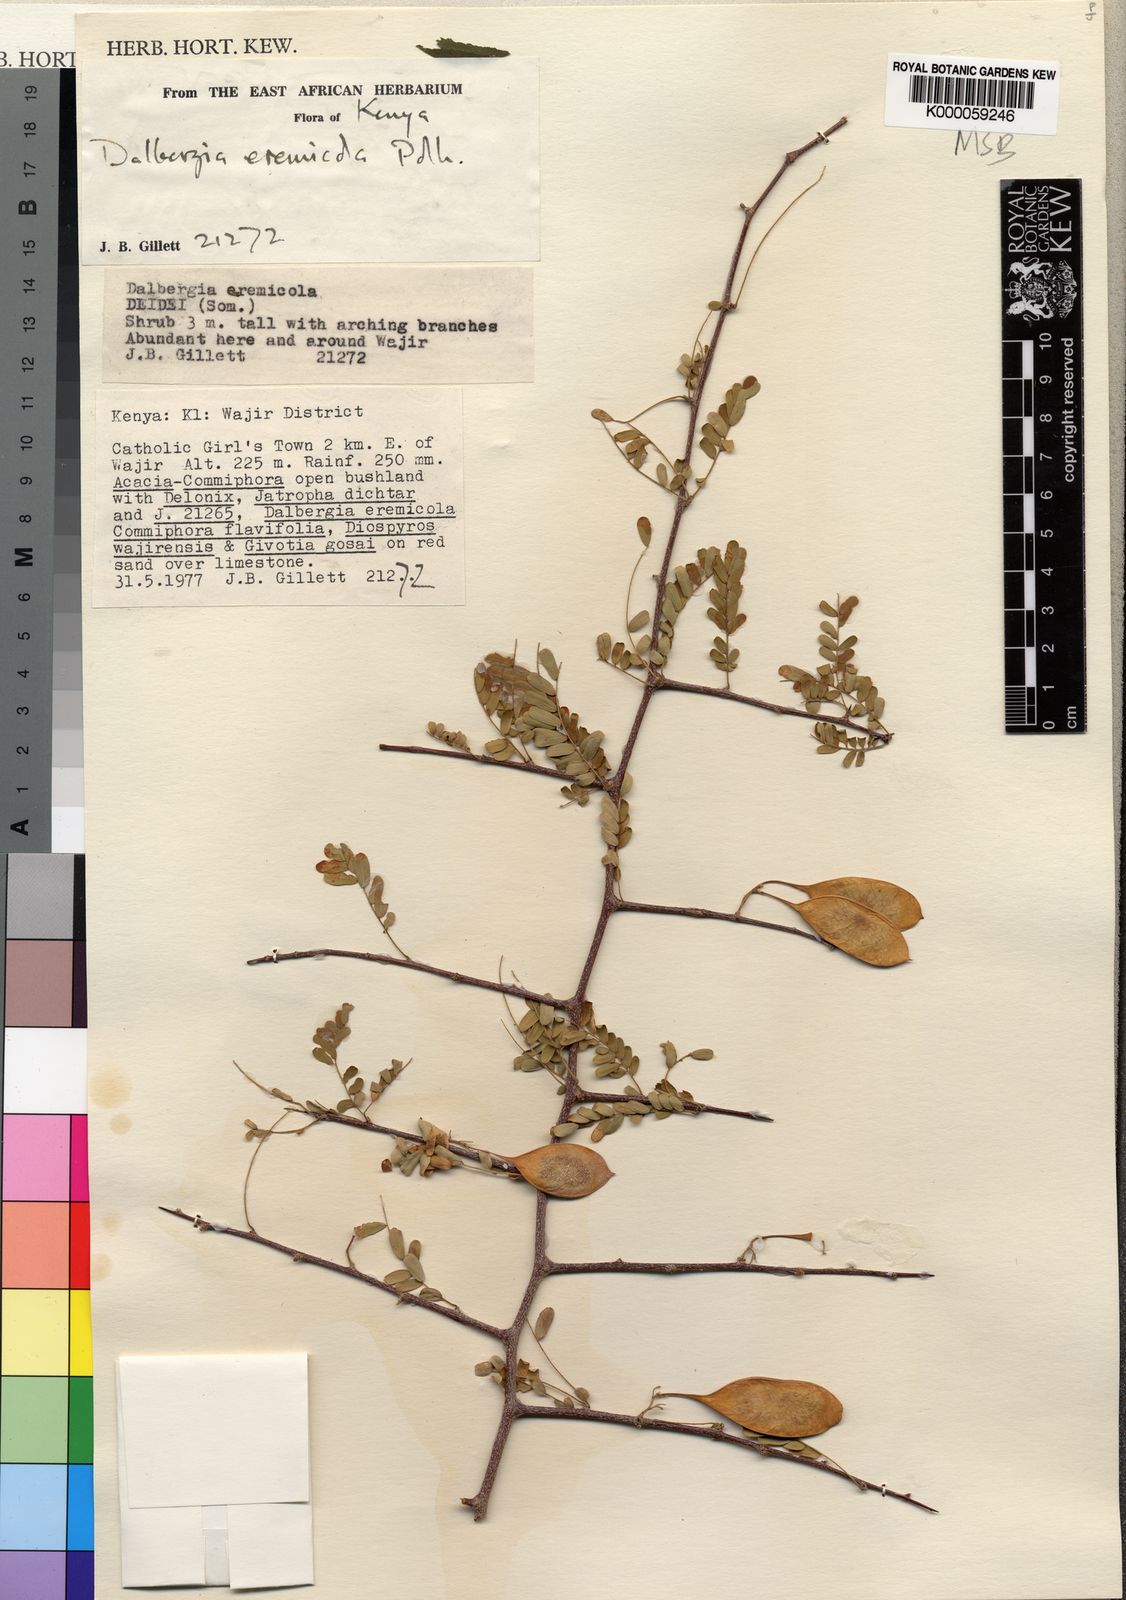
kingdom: Plantae
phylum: Tracheophyta
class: Magnoliopsida
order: Fabales
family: Fabaceae
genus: Dalbergia
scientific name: Dalbergia eremicola
